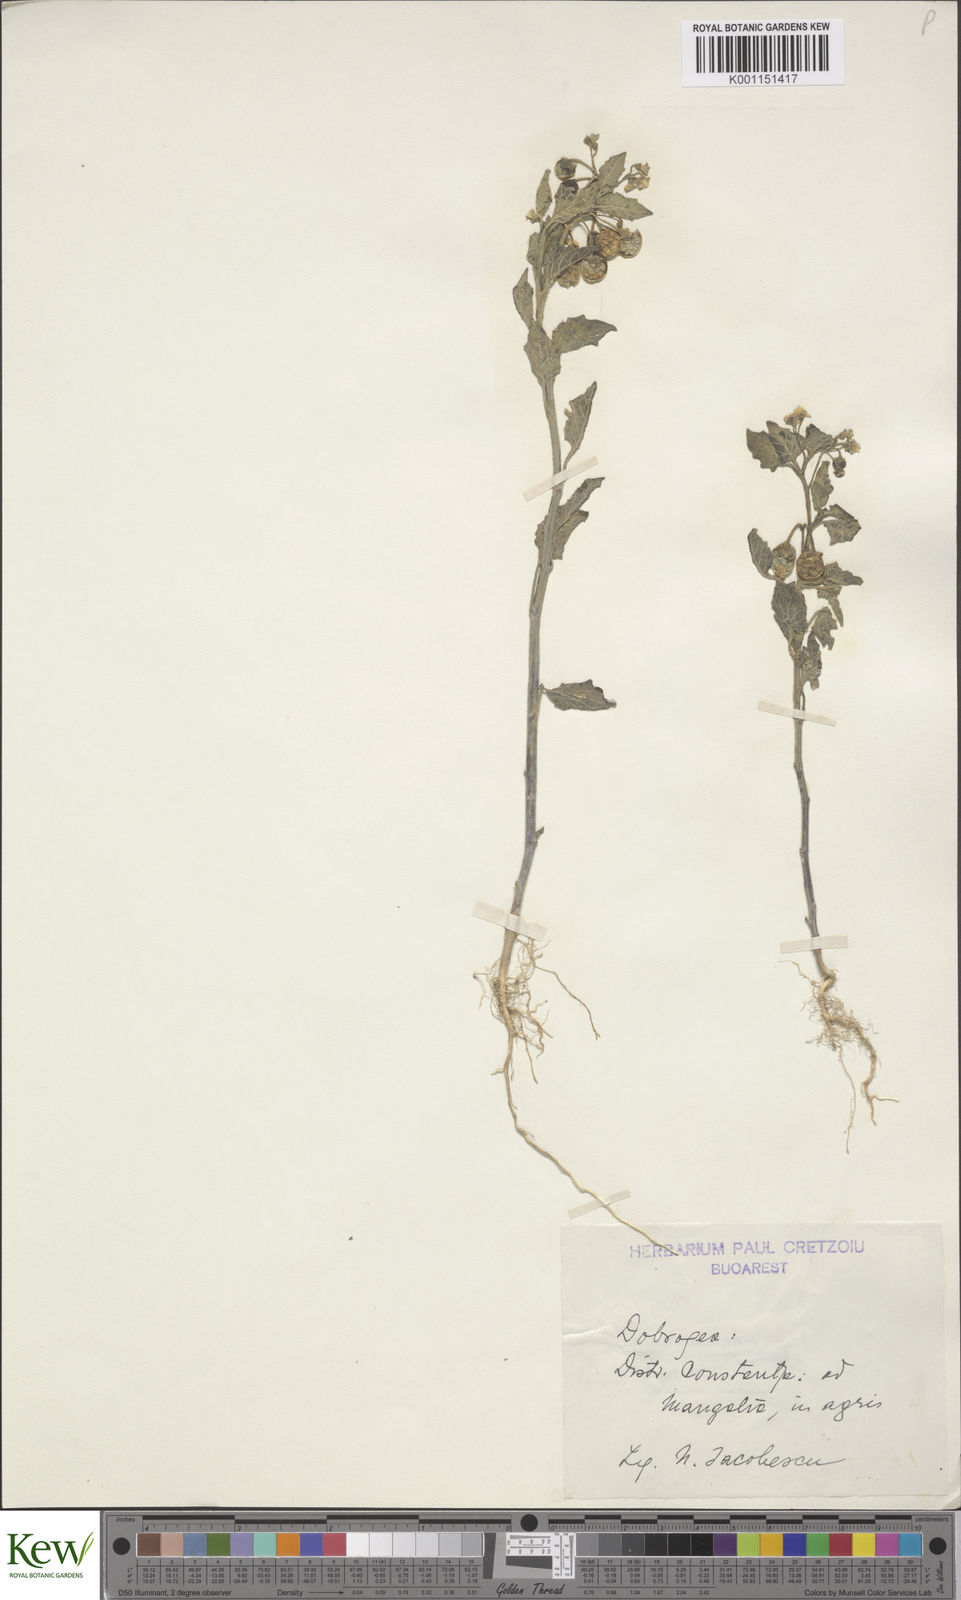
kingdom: Plantae
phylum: Tracheophyta
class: Magnoliopsida
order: Solanales
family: Solanaceae
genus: Solanum
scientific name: Solanum
